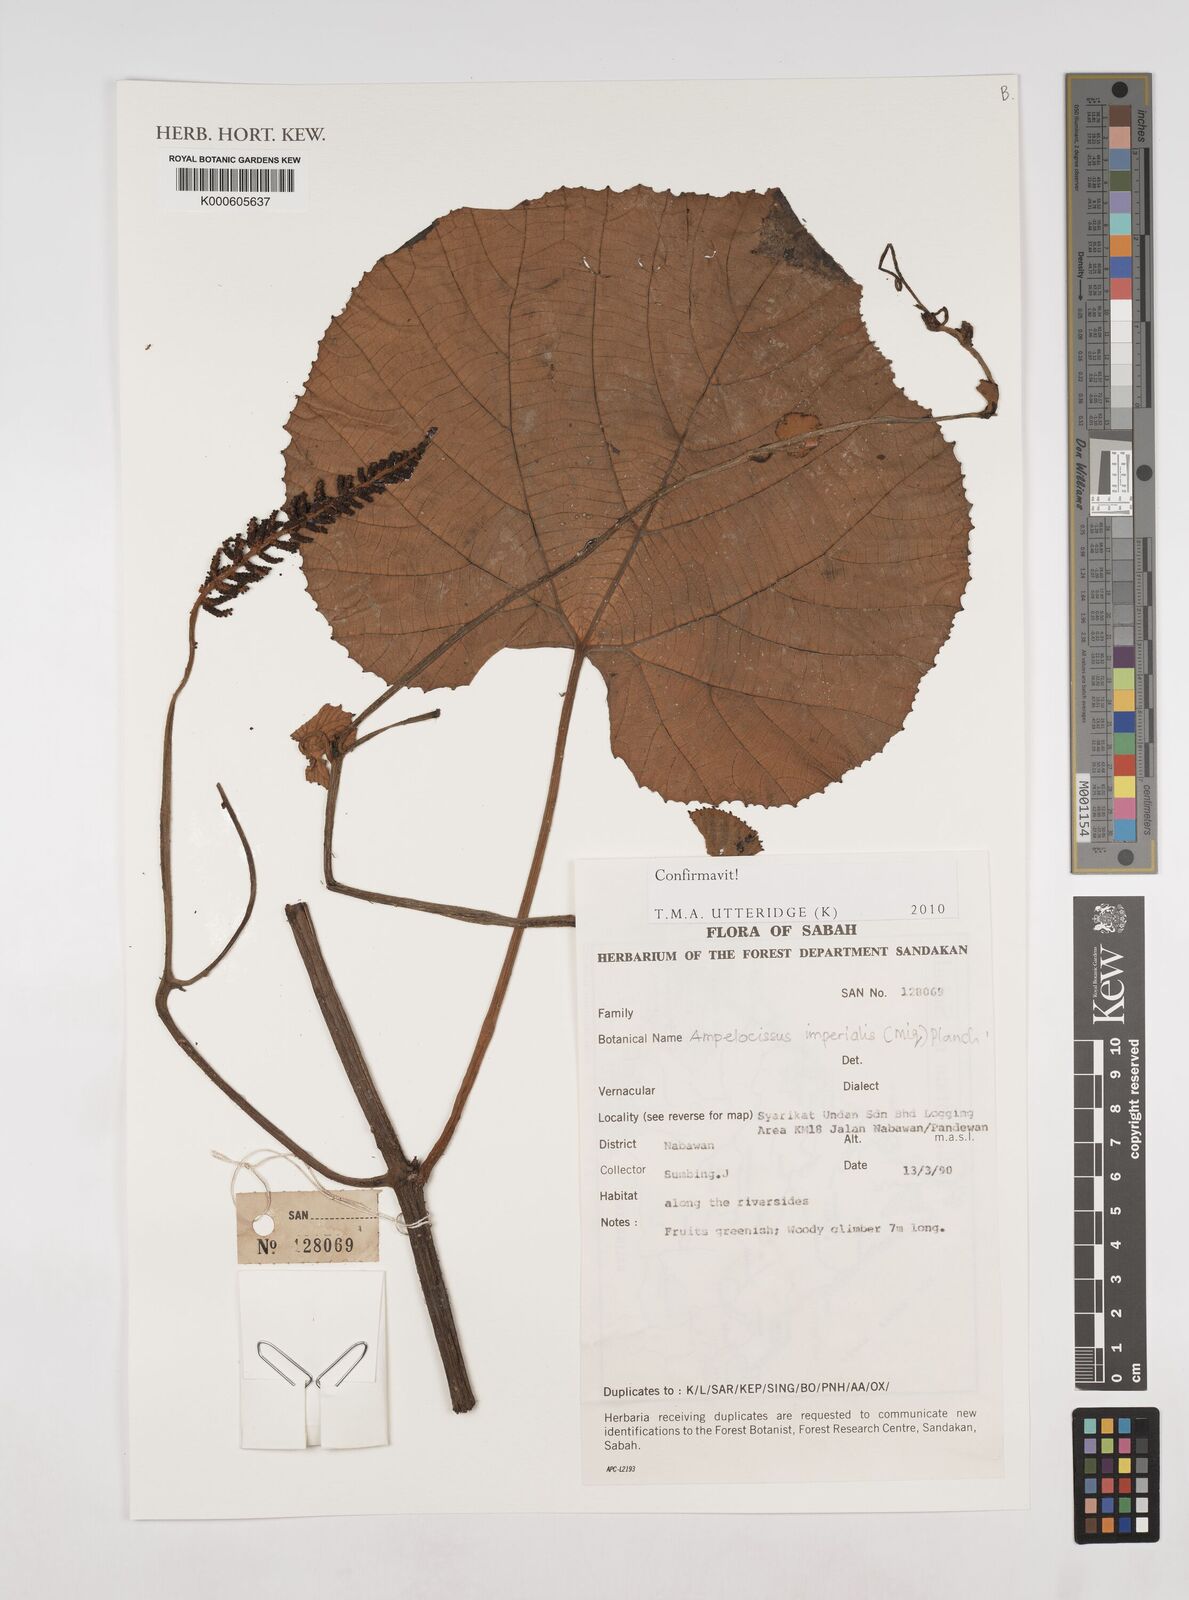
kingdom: Plantae
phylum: Tracheophyta
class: Magnoliopsida
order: Vitales
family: Vitaceae
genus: Ampelocissus
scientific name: Ampelocissus imperialis
